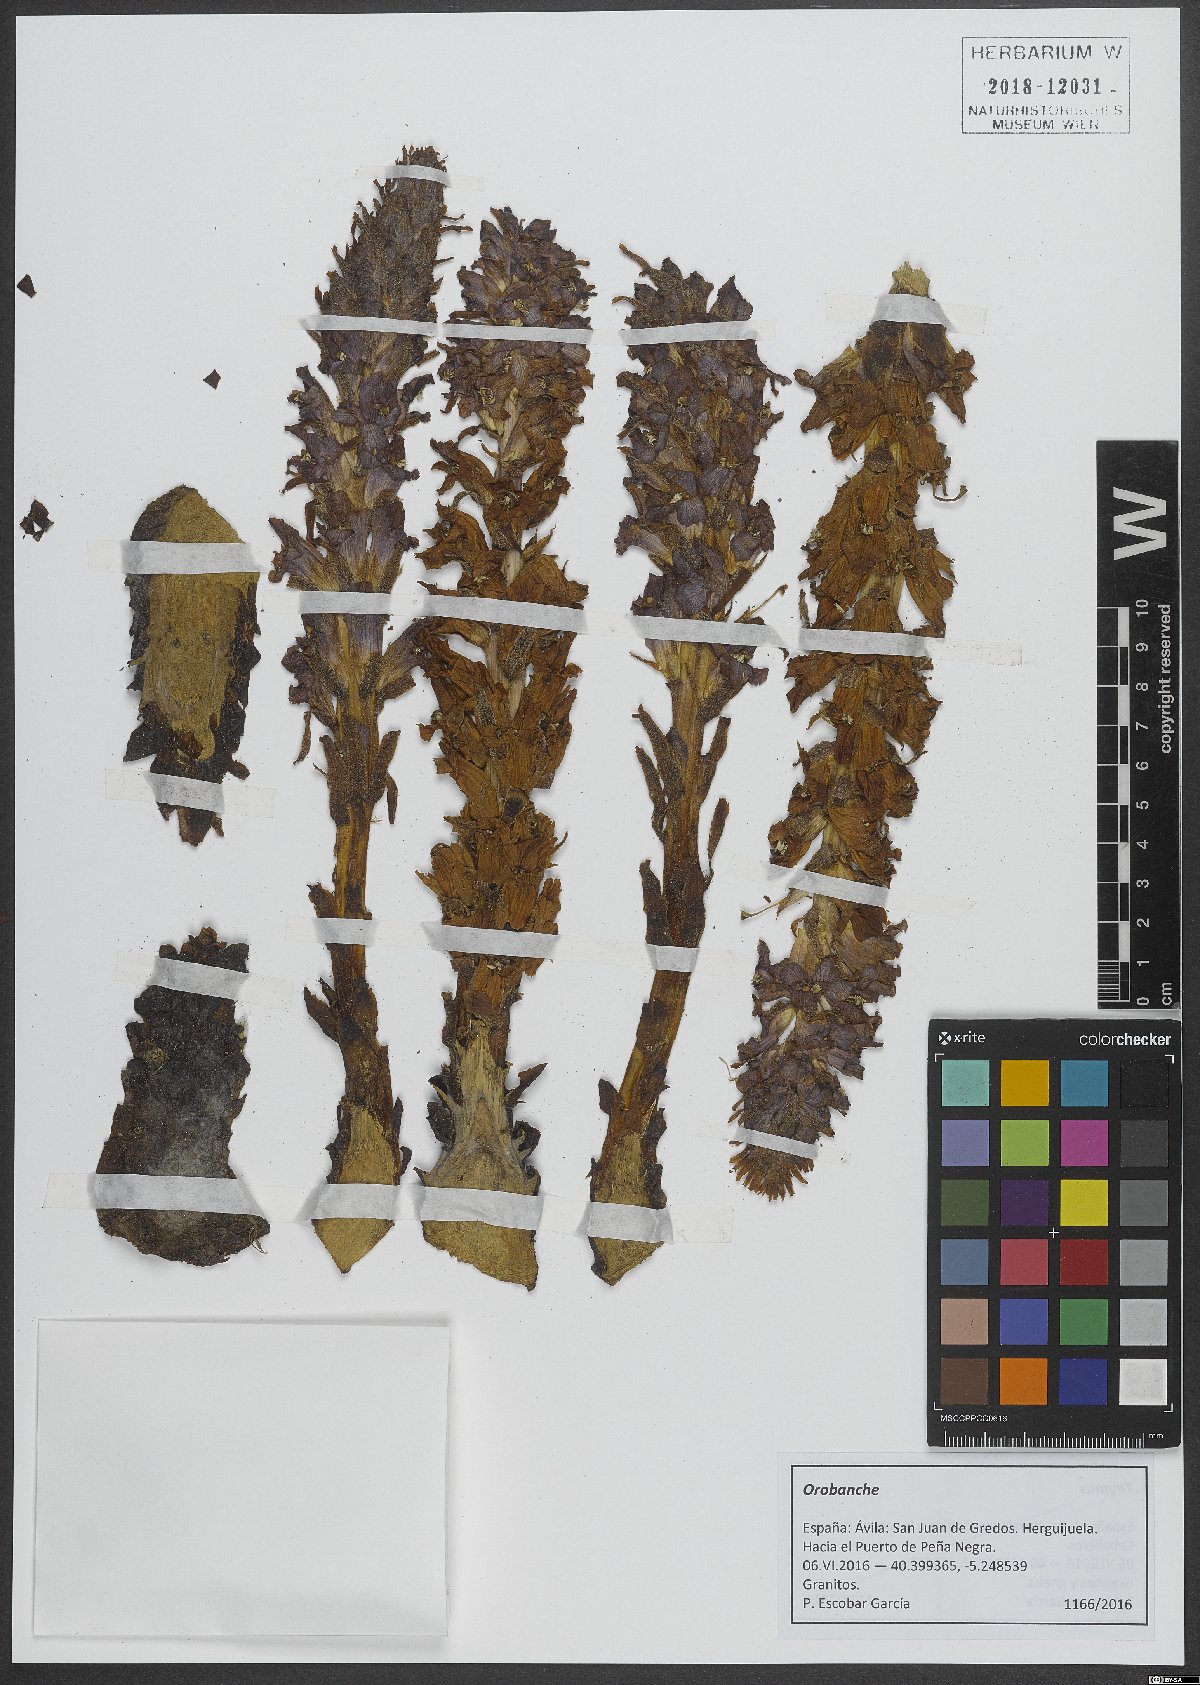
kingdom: Plantae
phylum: Tracheophyta
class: Magnoliopsida
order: Lamiales
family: Orobanchaceae
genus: Orobanche
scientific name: Orobanche
